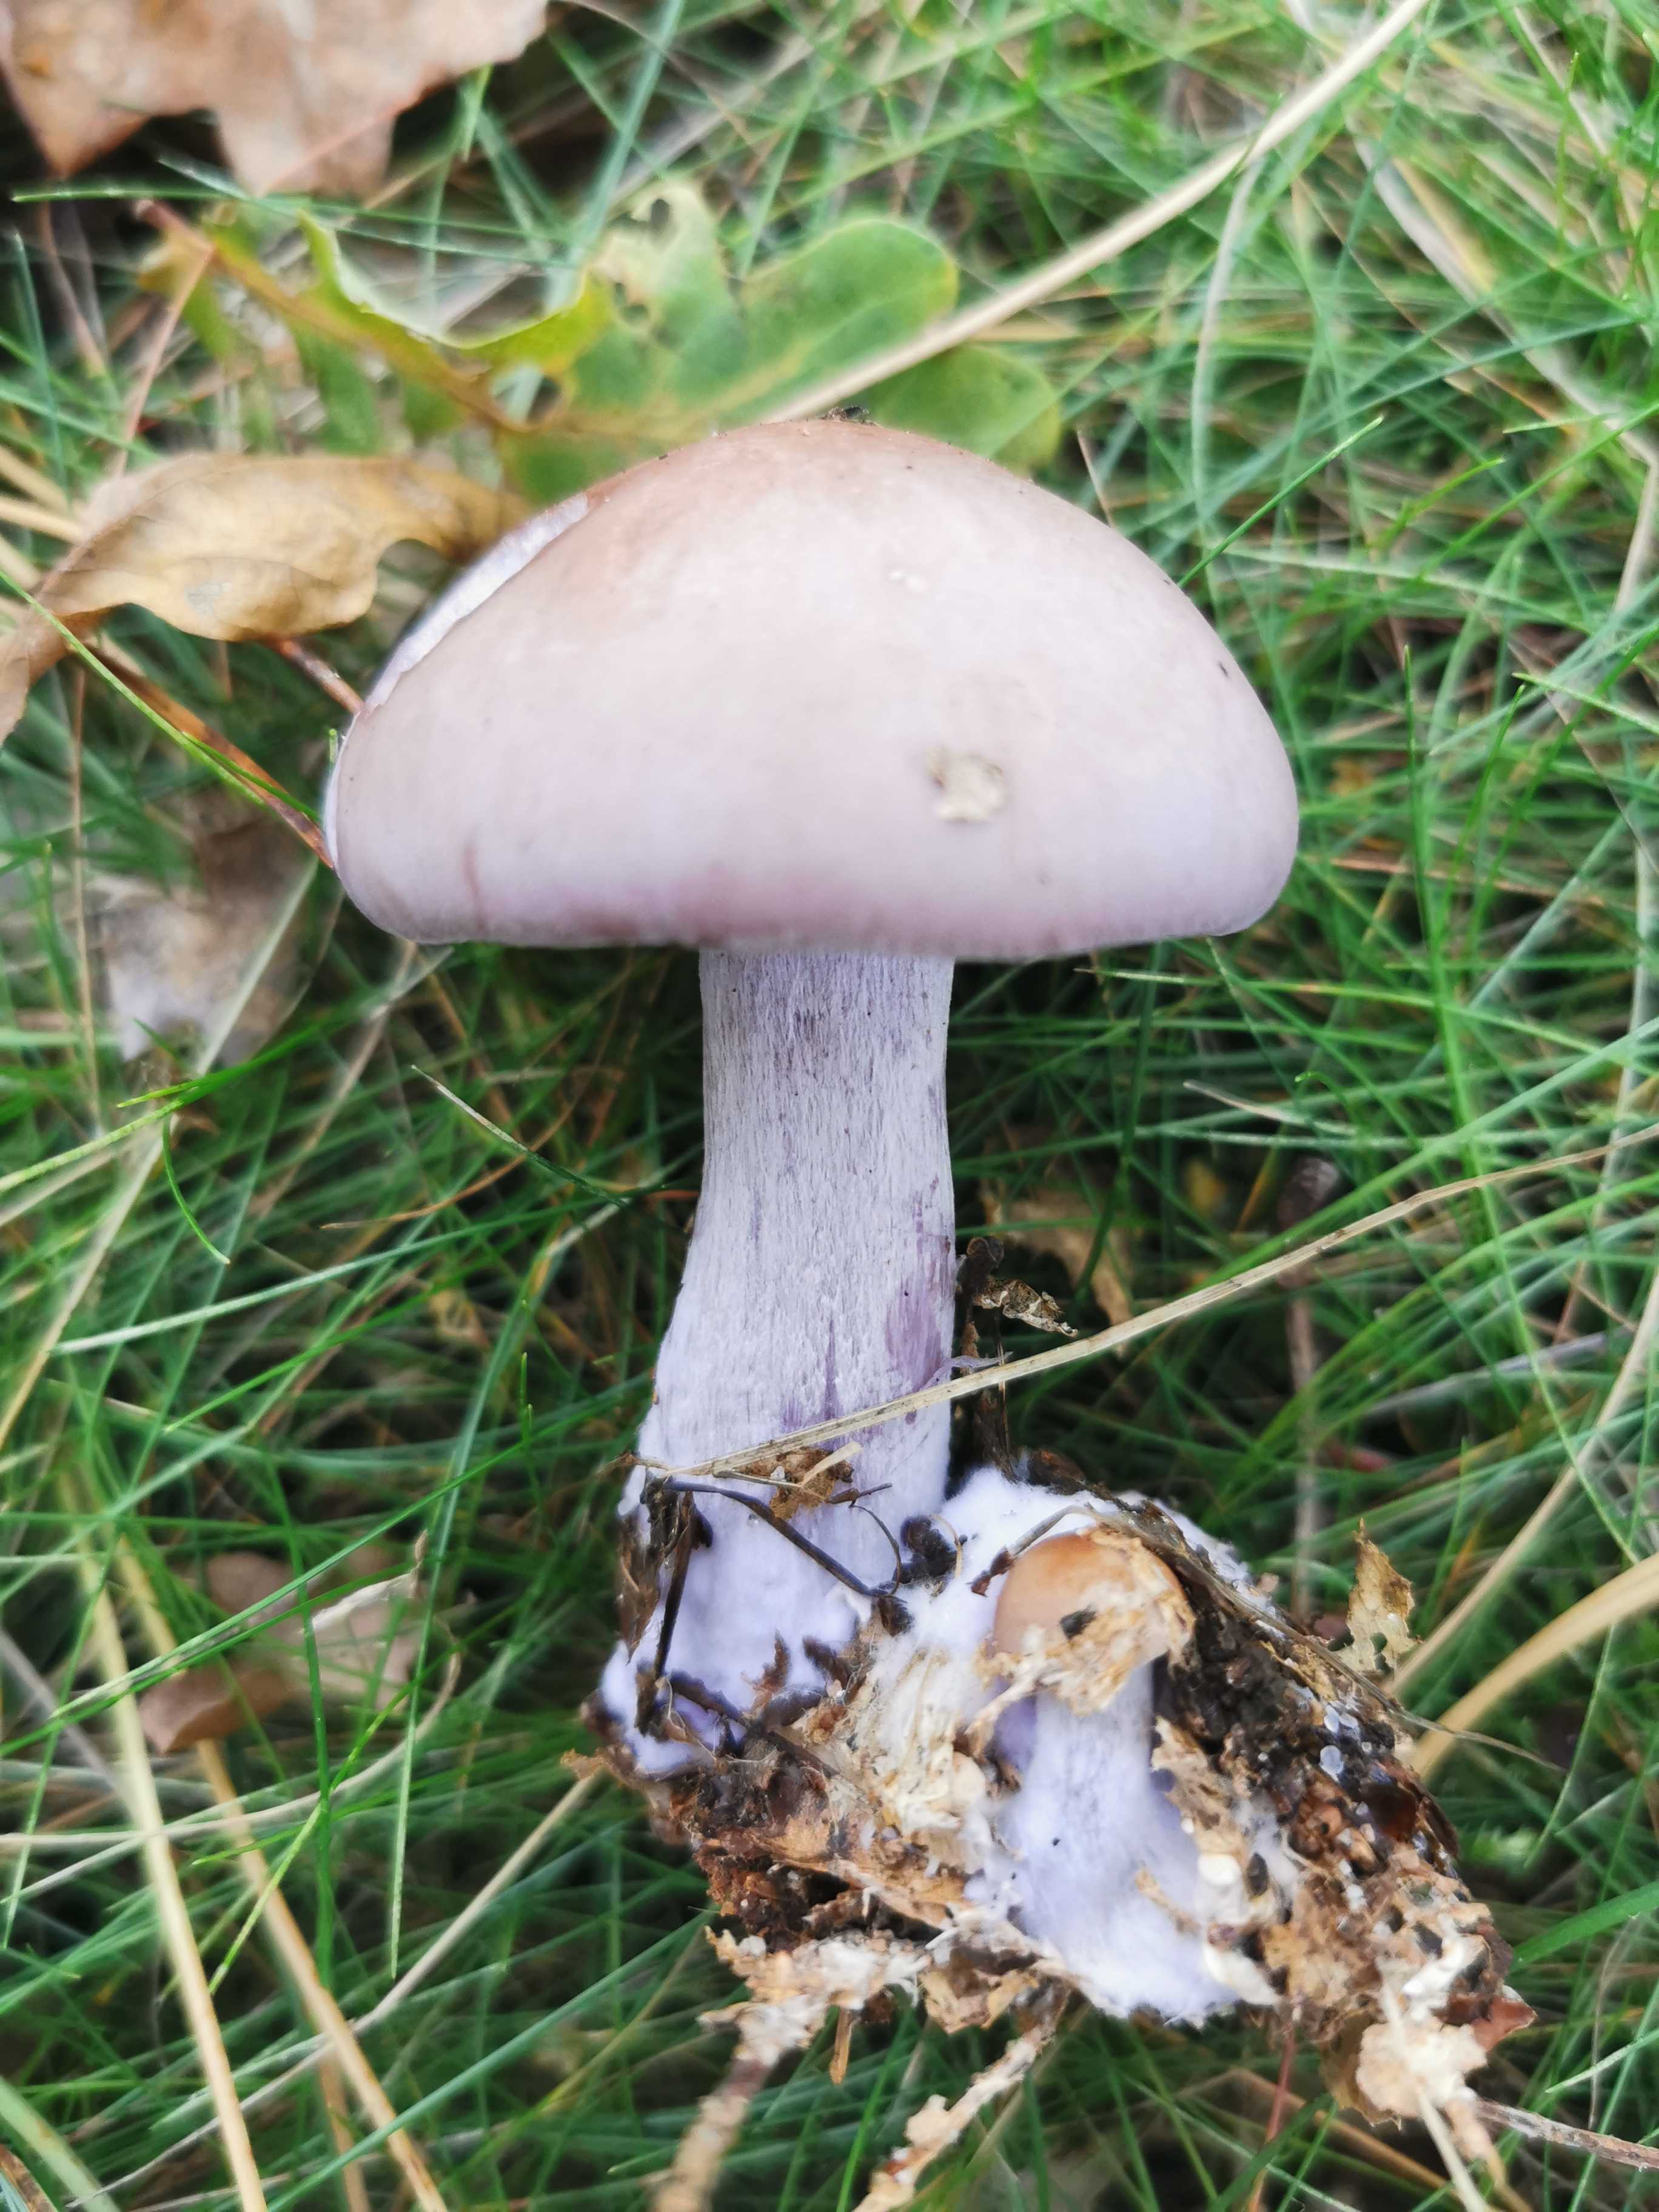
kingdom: Fungi
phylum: Basidiomycota
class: Agaricomycetes
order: Agaricales
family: Tricholomataceae
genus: Lepista
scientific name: Lepista nuda
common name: violet hekseringshat
